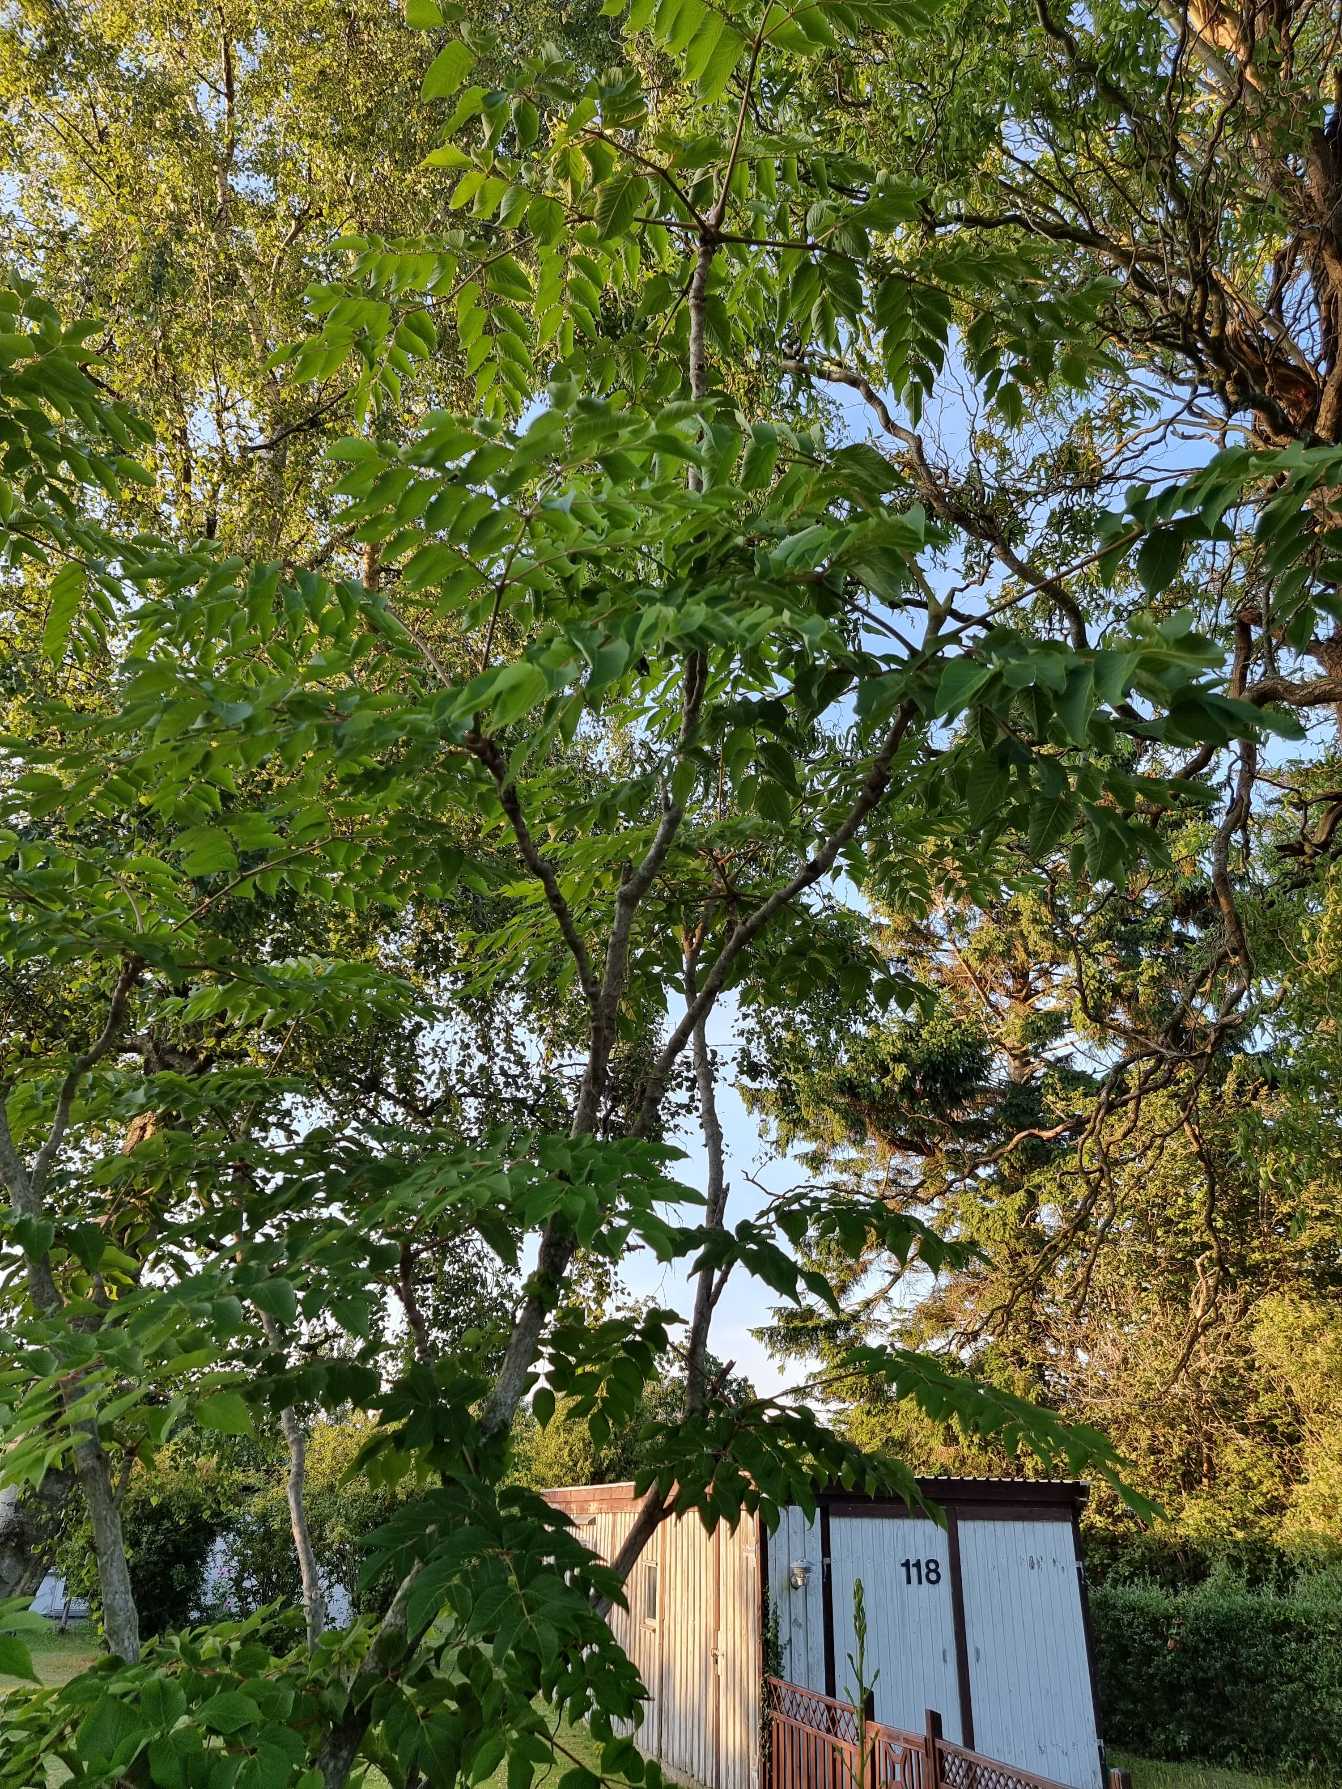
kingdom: Plantae
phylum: Tracheophyta
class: Magnoliopsida
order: Sapindales
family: Simaroubaceae
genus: Ailanthus
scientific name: Ailanthus altissima
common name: Skyrækker
